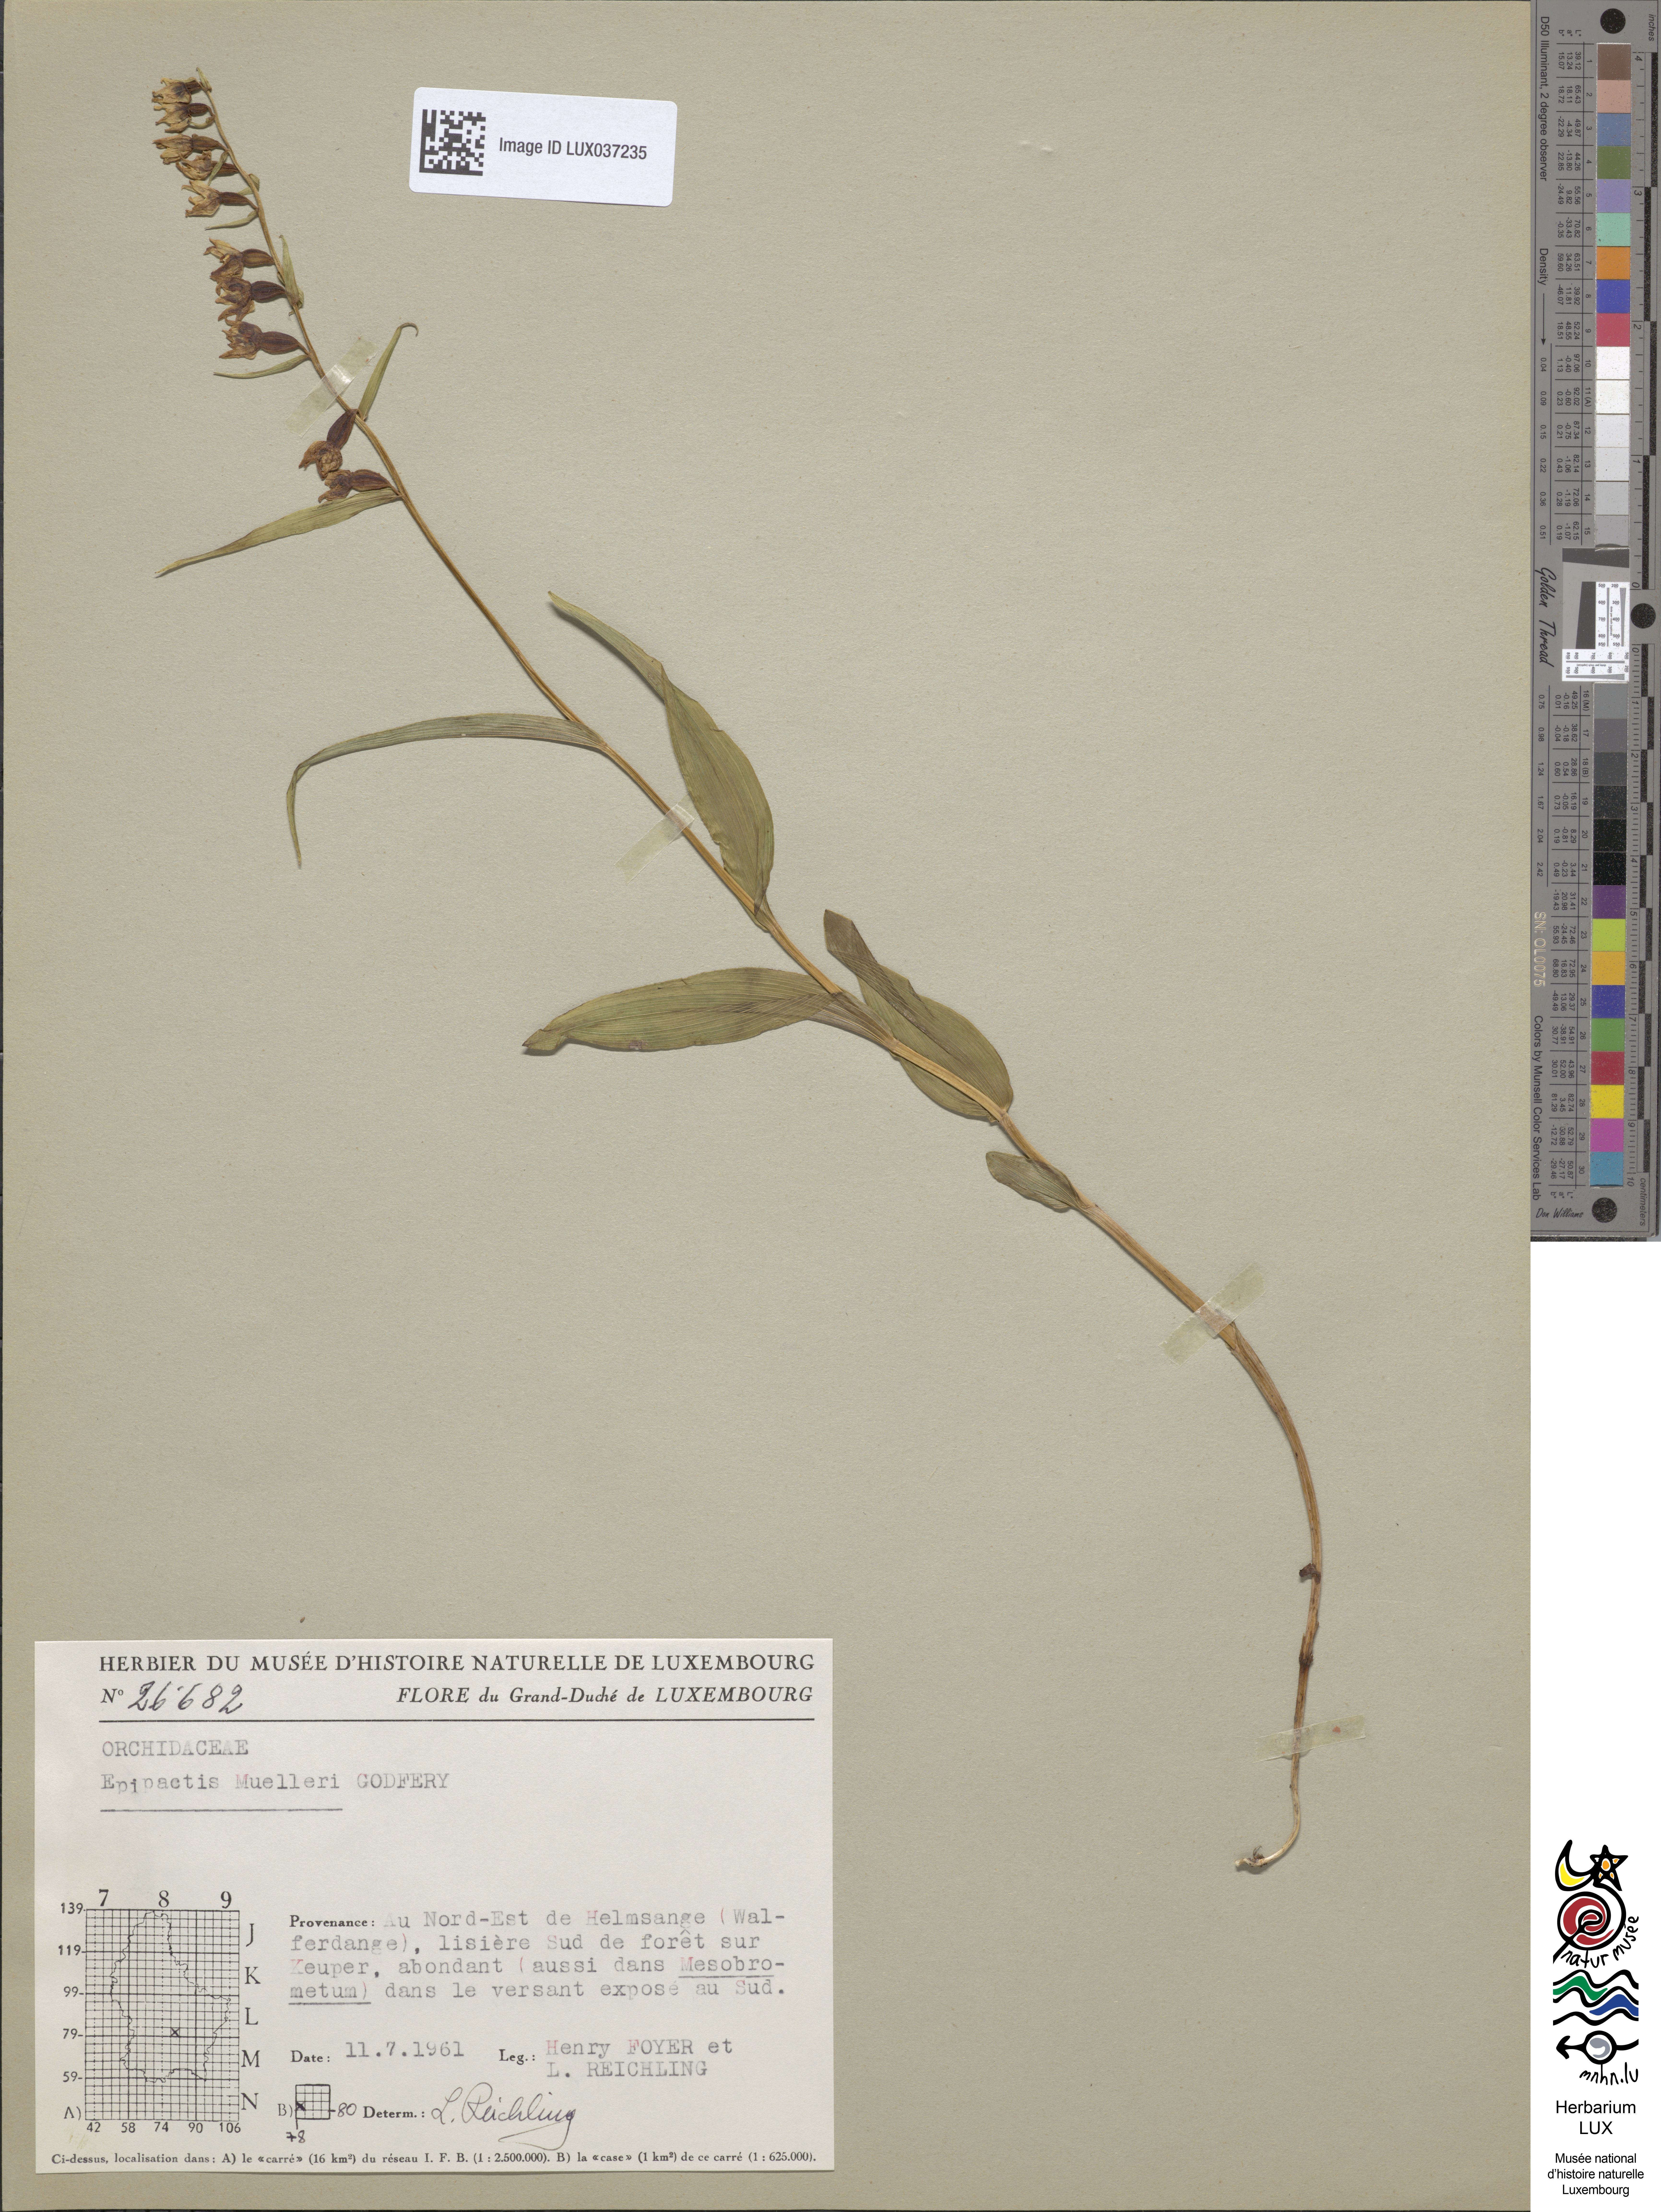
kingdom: Plantae
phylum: Tracheophyta
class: Liliopsida
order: Asparagales
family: Orchidaceae
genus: Epipactis
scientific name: Epipactis muelleri
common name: Mueller's epipactis
